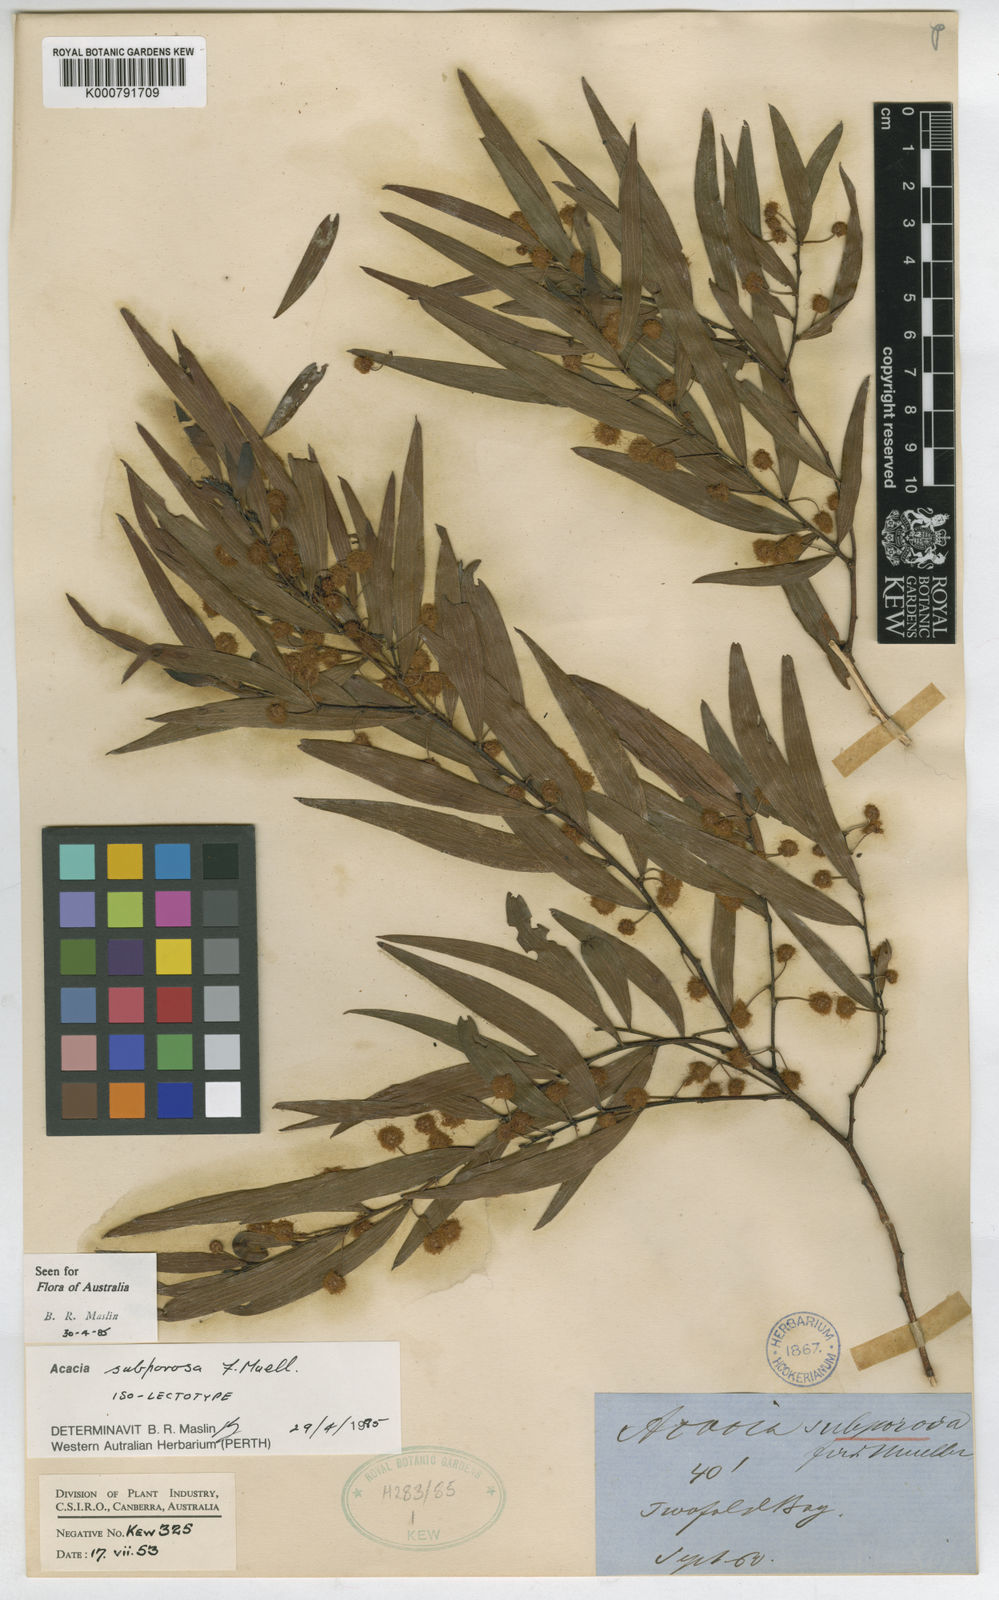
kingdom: Plantae
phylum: Tracheophyta
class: Magnoliopsida
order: Fabales
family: Fabaceae
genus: Acacia
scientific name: Acacia dilatata
